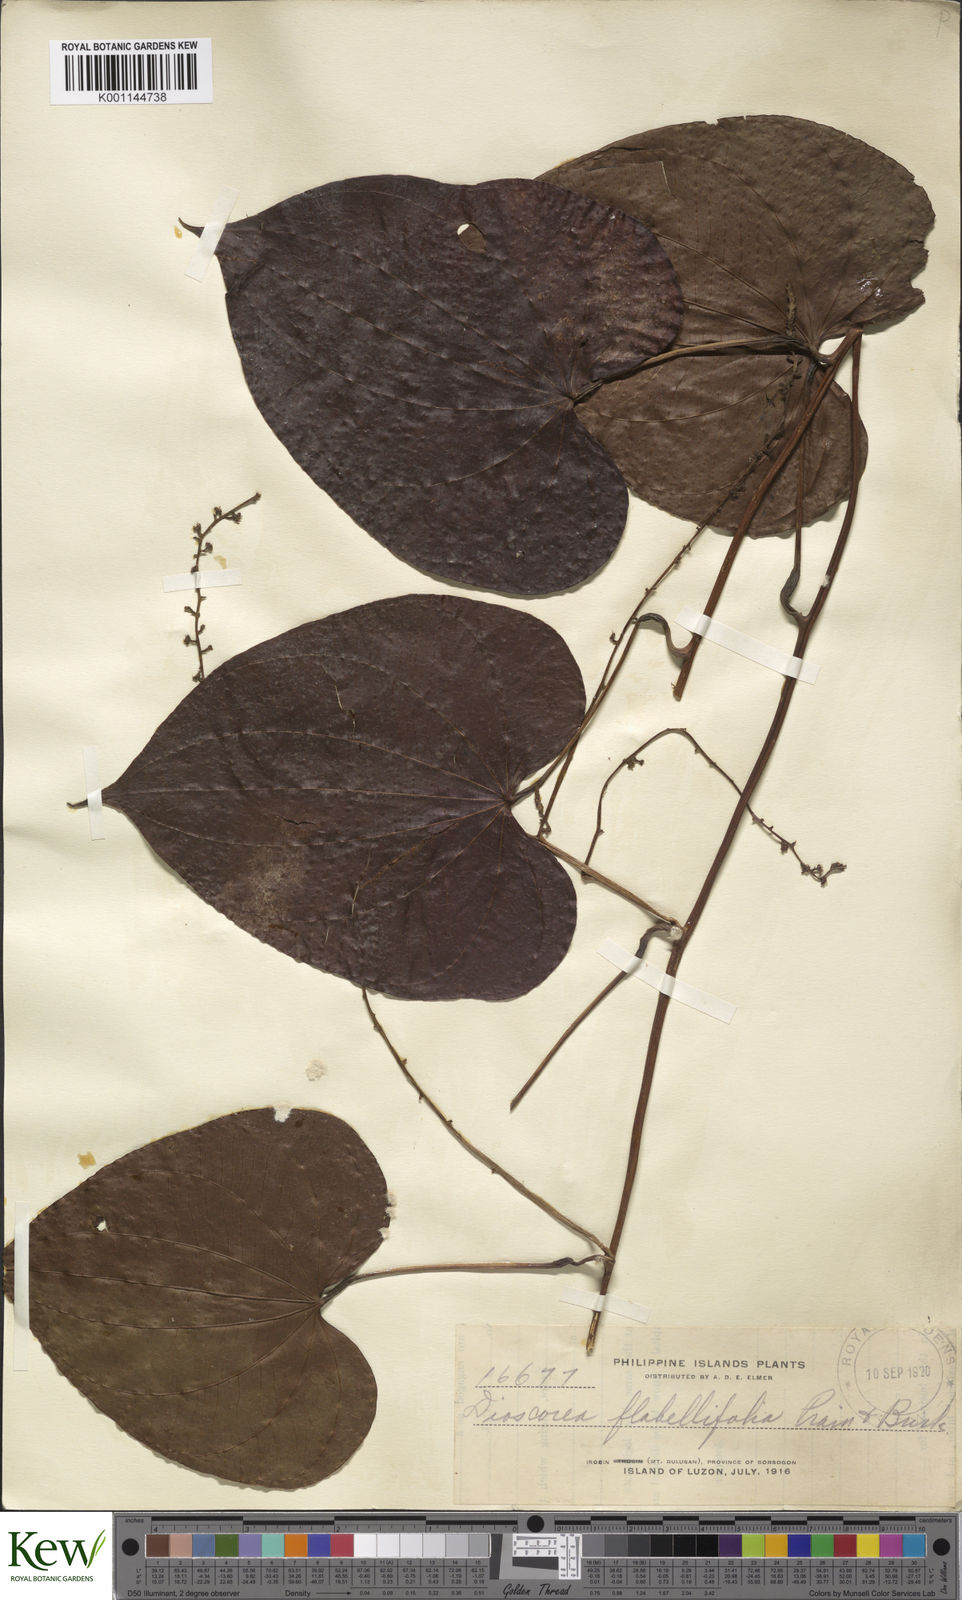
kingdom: Plantae
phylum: Tracheophyta
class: Liliopsida
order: Dioscoreales
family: Dioscoreaceae
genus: Dioscorea
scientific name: Dioscorea flabellifolia
